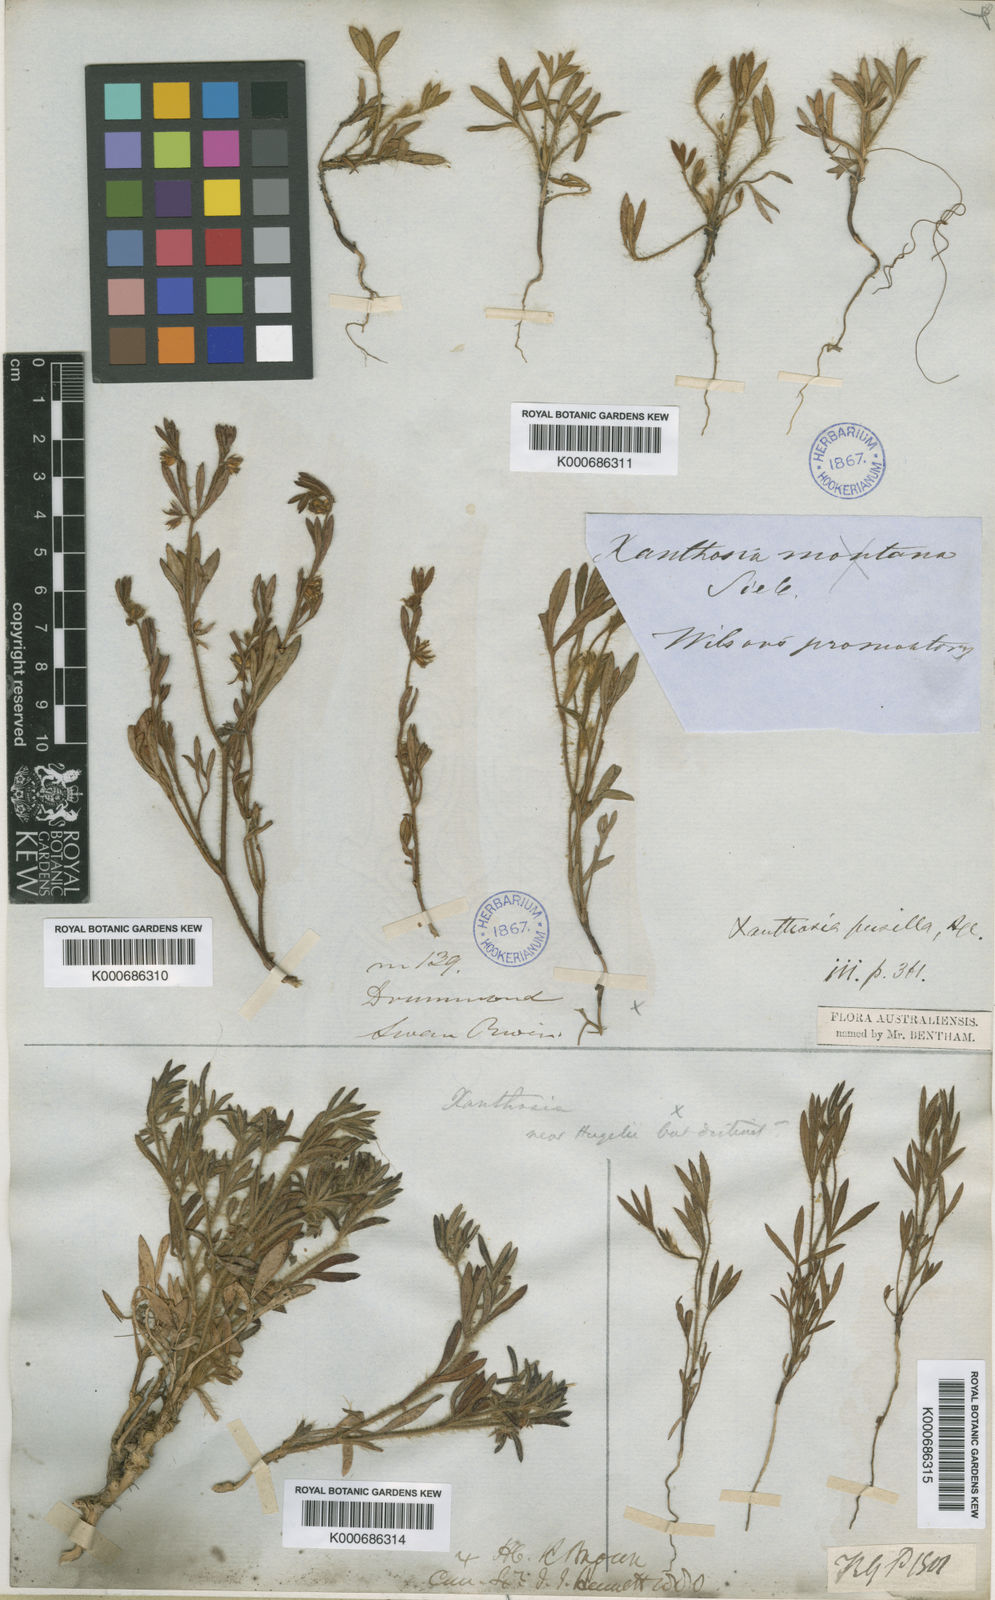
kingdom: Plantae
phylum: Tracheophyta
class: Magnoliopsida
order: Apiales
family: Apiaceae
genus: Xanthosia
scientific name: Xanthosia huegelii
